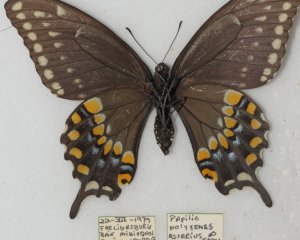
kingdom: Animalia
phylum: Arthropoda
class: Insecta
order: Lepidoptera
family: Papilionidae
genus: Papilio
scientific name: Papilio polyxenes
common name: Black Swallowtail
